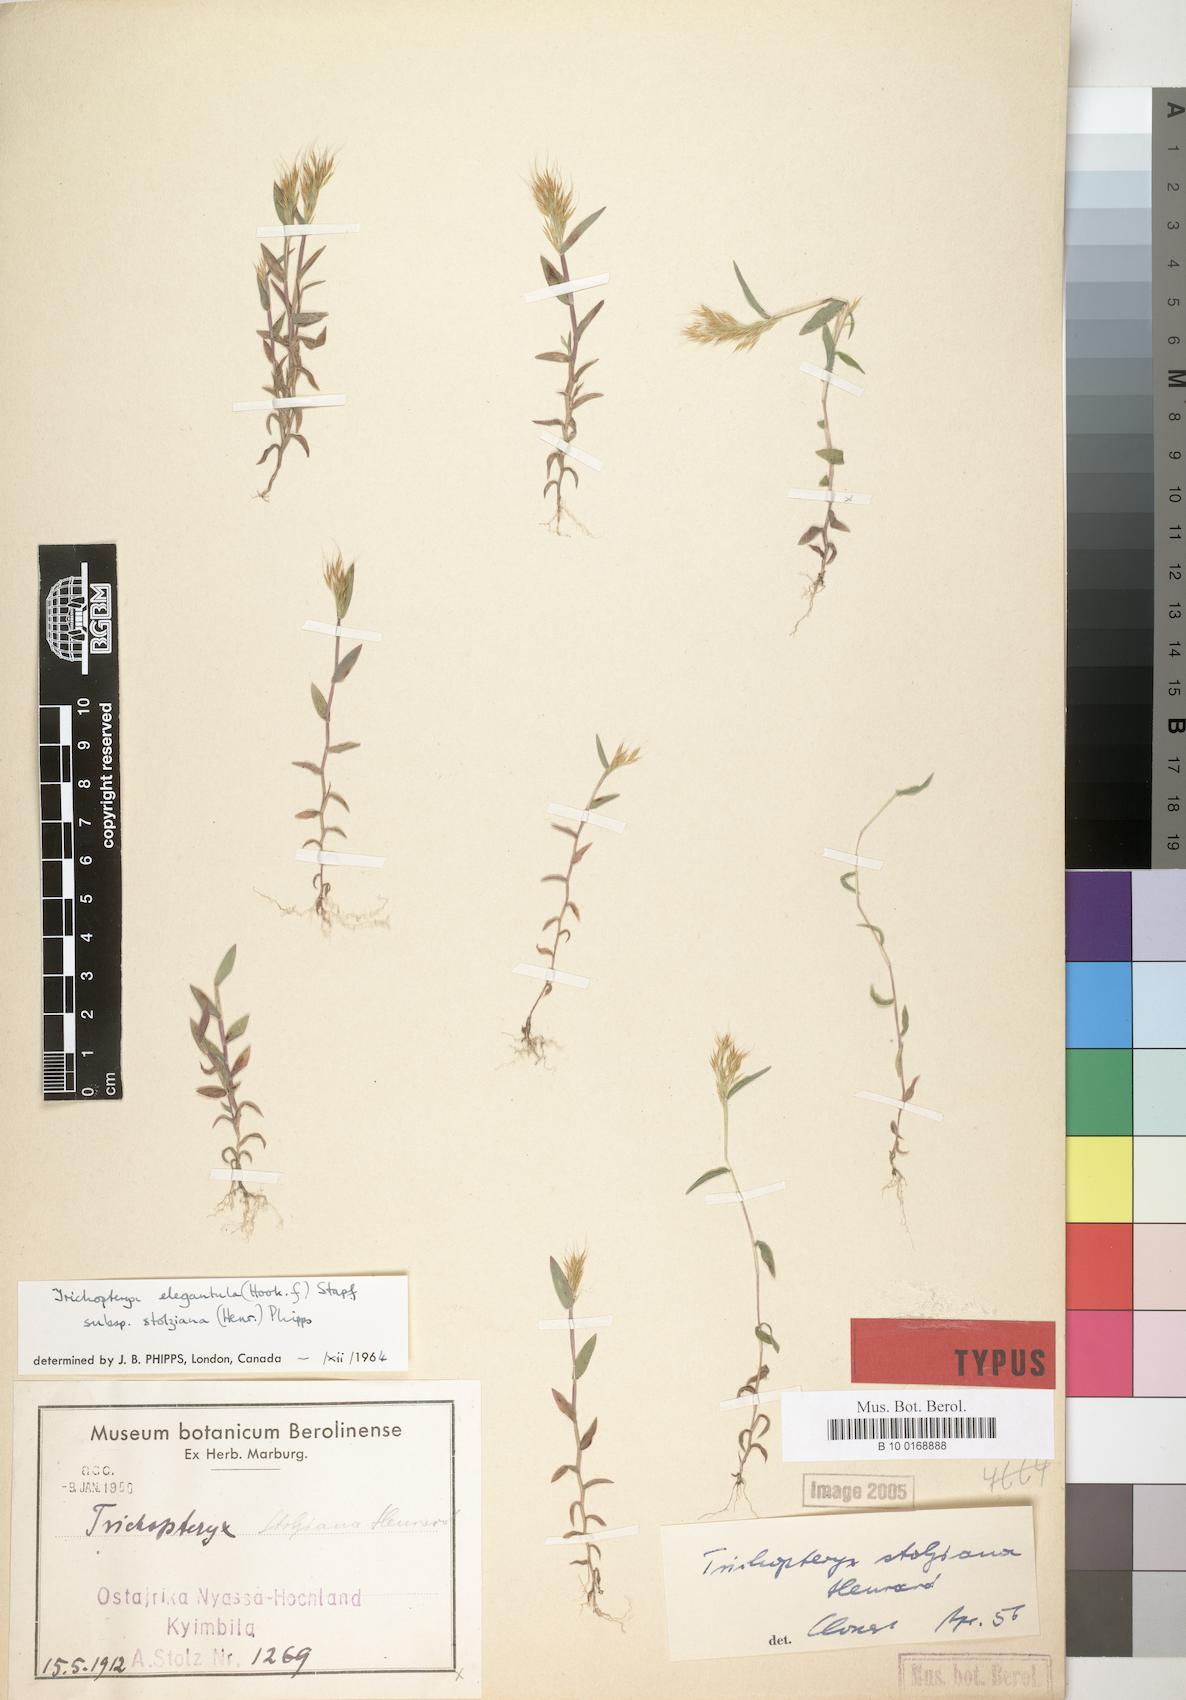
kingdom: Plantae
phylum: Tracheophyta
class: Liliopsida
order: Poales
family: Poaceae
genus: Trichopteryx
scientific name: Trichopteryx stolziana
